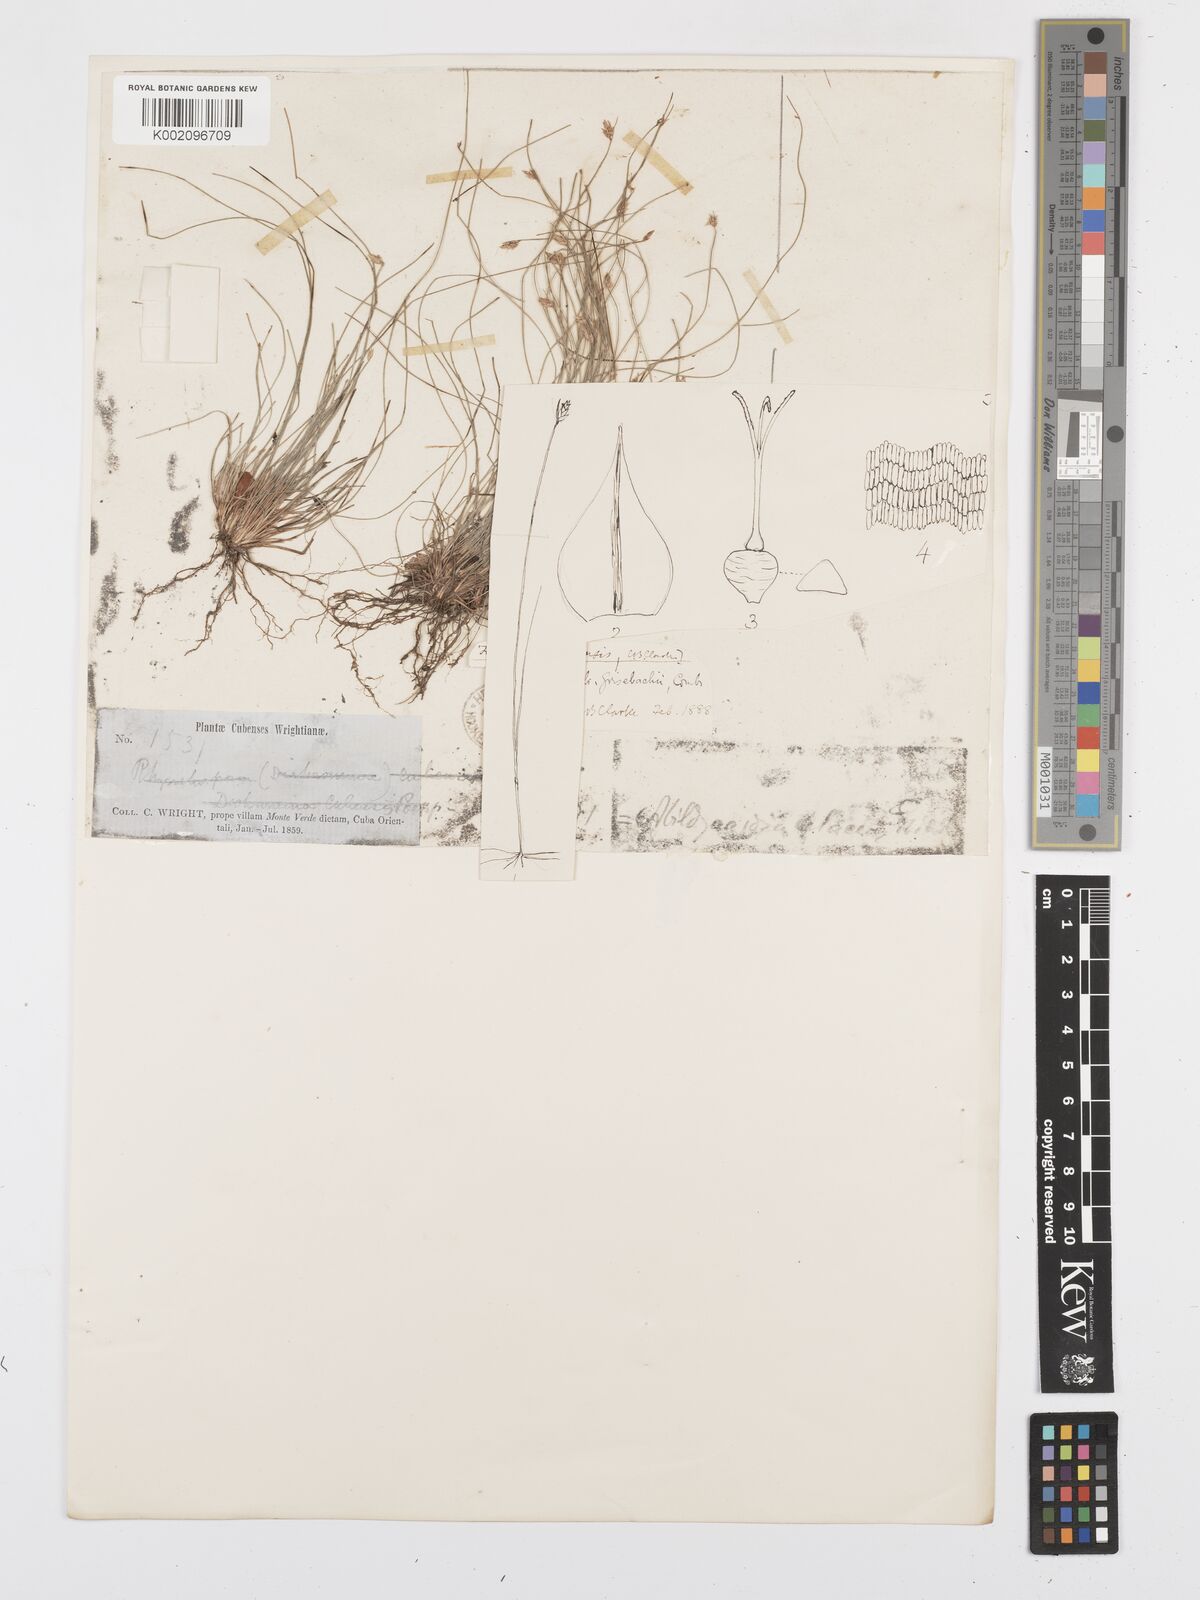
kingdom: Plantae
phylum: Tracheophyta
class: Liliopsida
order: Poales
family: Cyperaceae
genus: Bulbostylis
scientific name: Bulbostylis setacea
